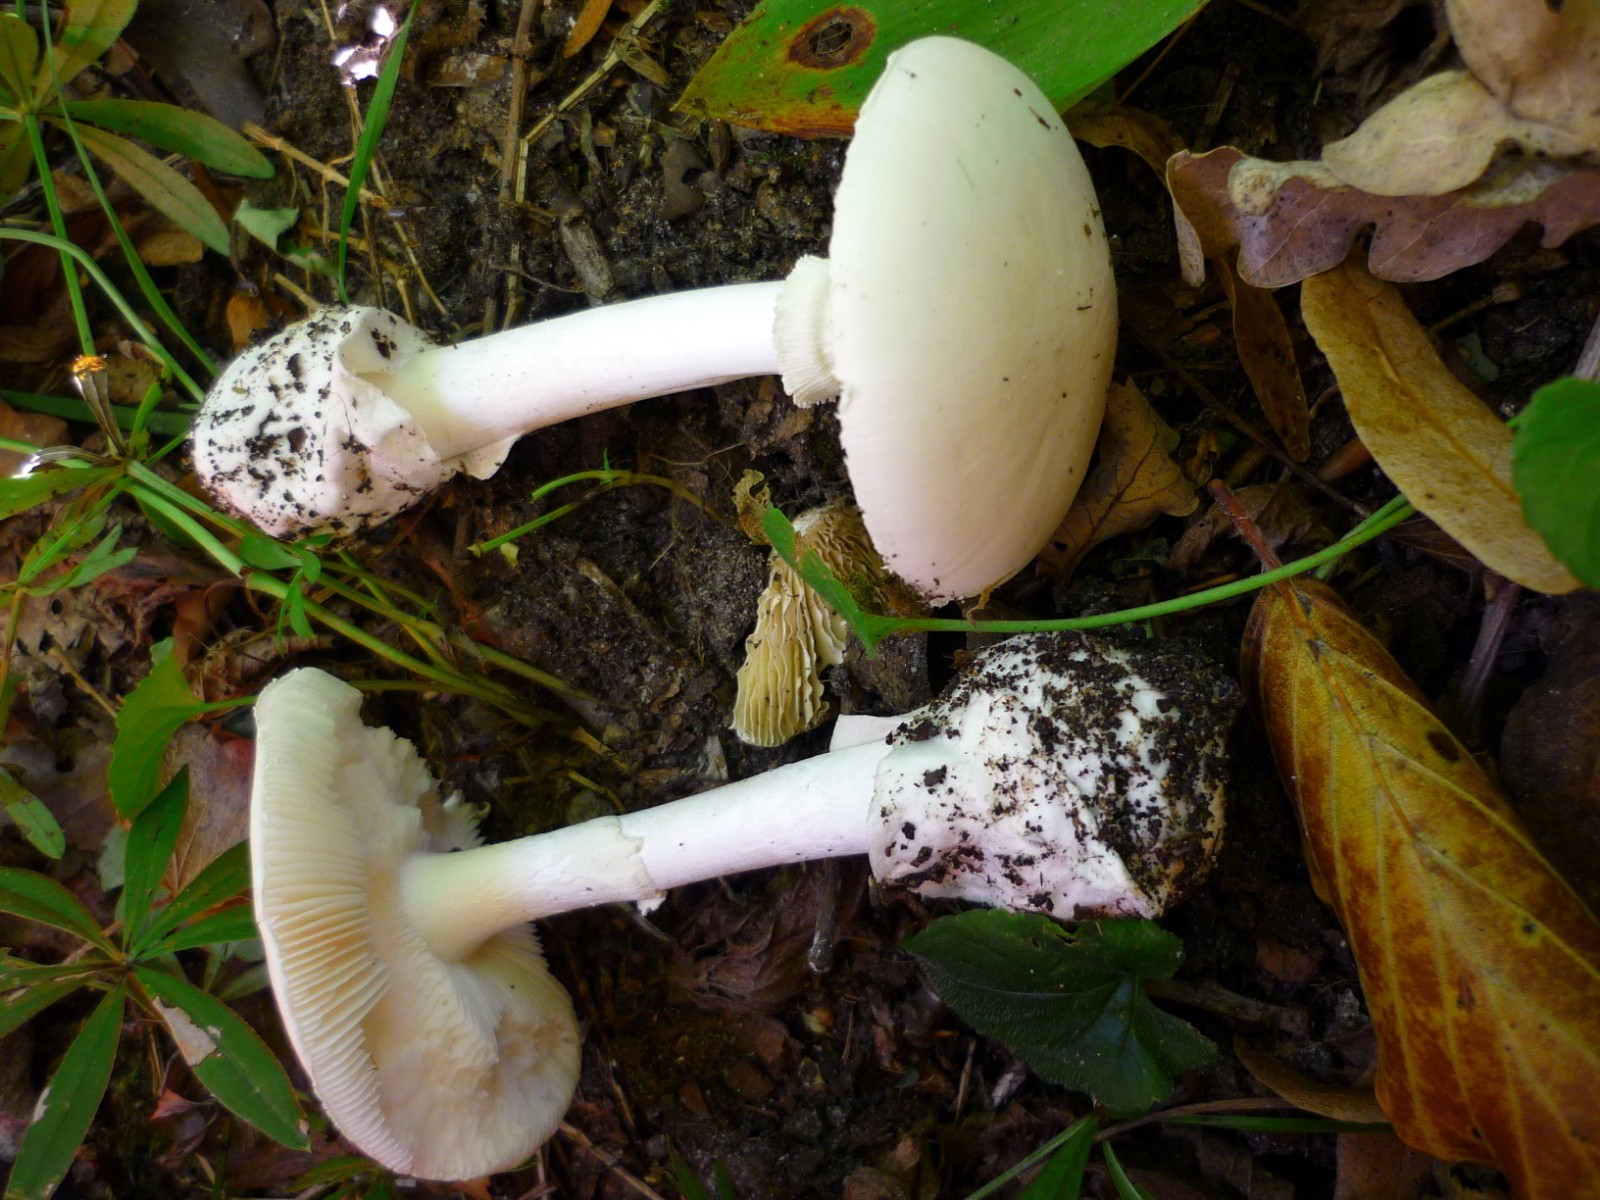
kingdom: Fungi
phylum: Basidiomycota
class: Agaricomycetes
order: Agaricales
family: Amanitaceae
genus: Amanita
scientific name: Amanita phalloides
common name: Death cap
